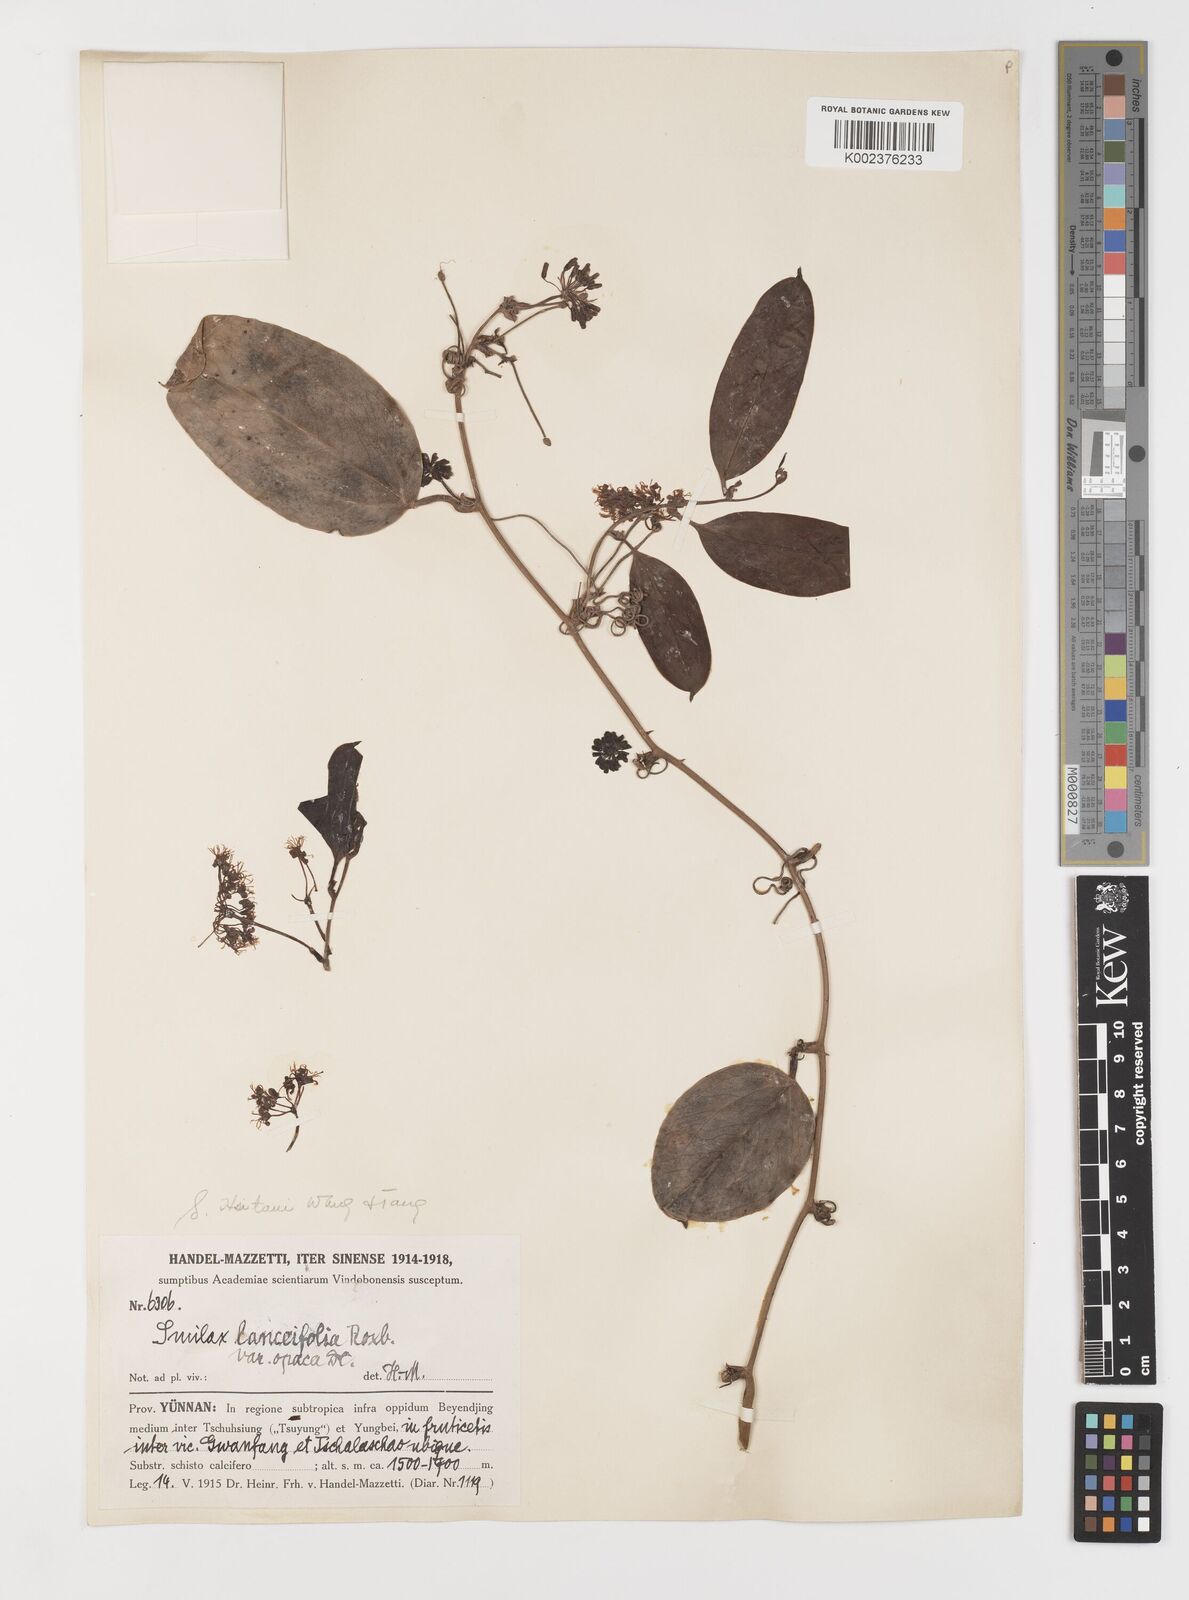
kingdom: Plantae
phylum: Tracheophyta
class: Liliopsida
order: Liliales
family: Smilacaceae
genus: Smilax
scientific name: Smilax
